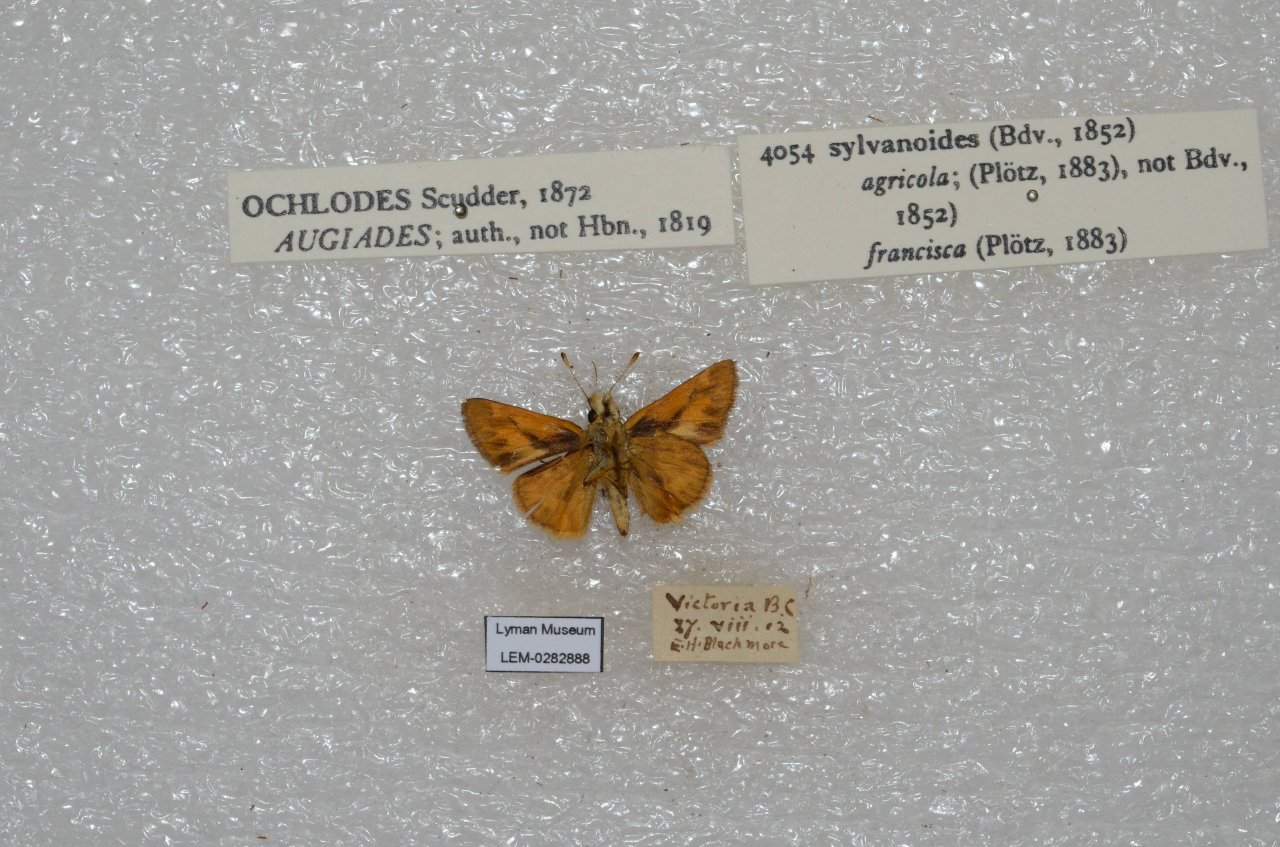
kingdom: Animalia
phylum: Arthropoda
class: Insecta
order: Lepidoptera
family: Hesperiidae
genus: Ochlodes
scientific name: Ochlodes sylvanoides
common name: Woodland Skipper
